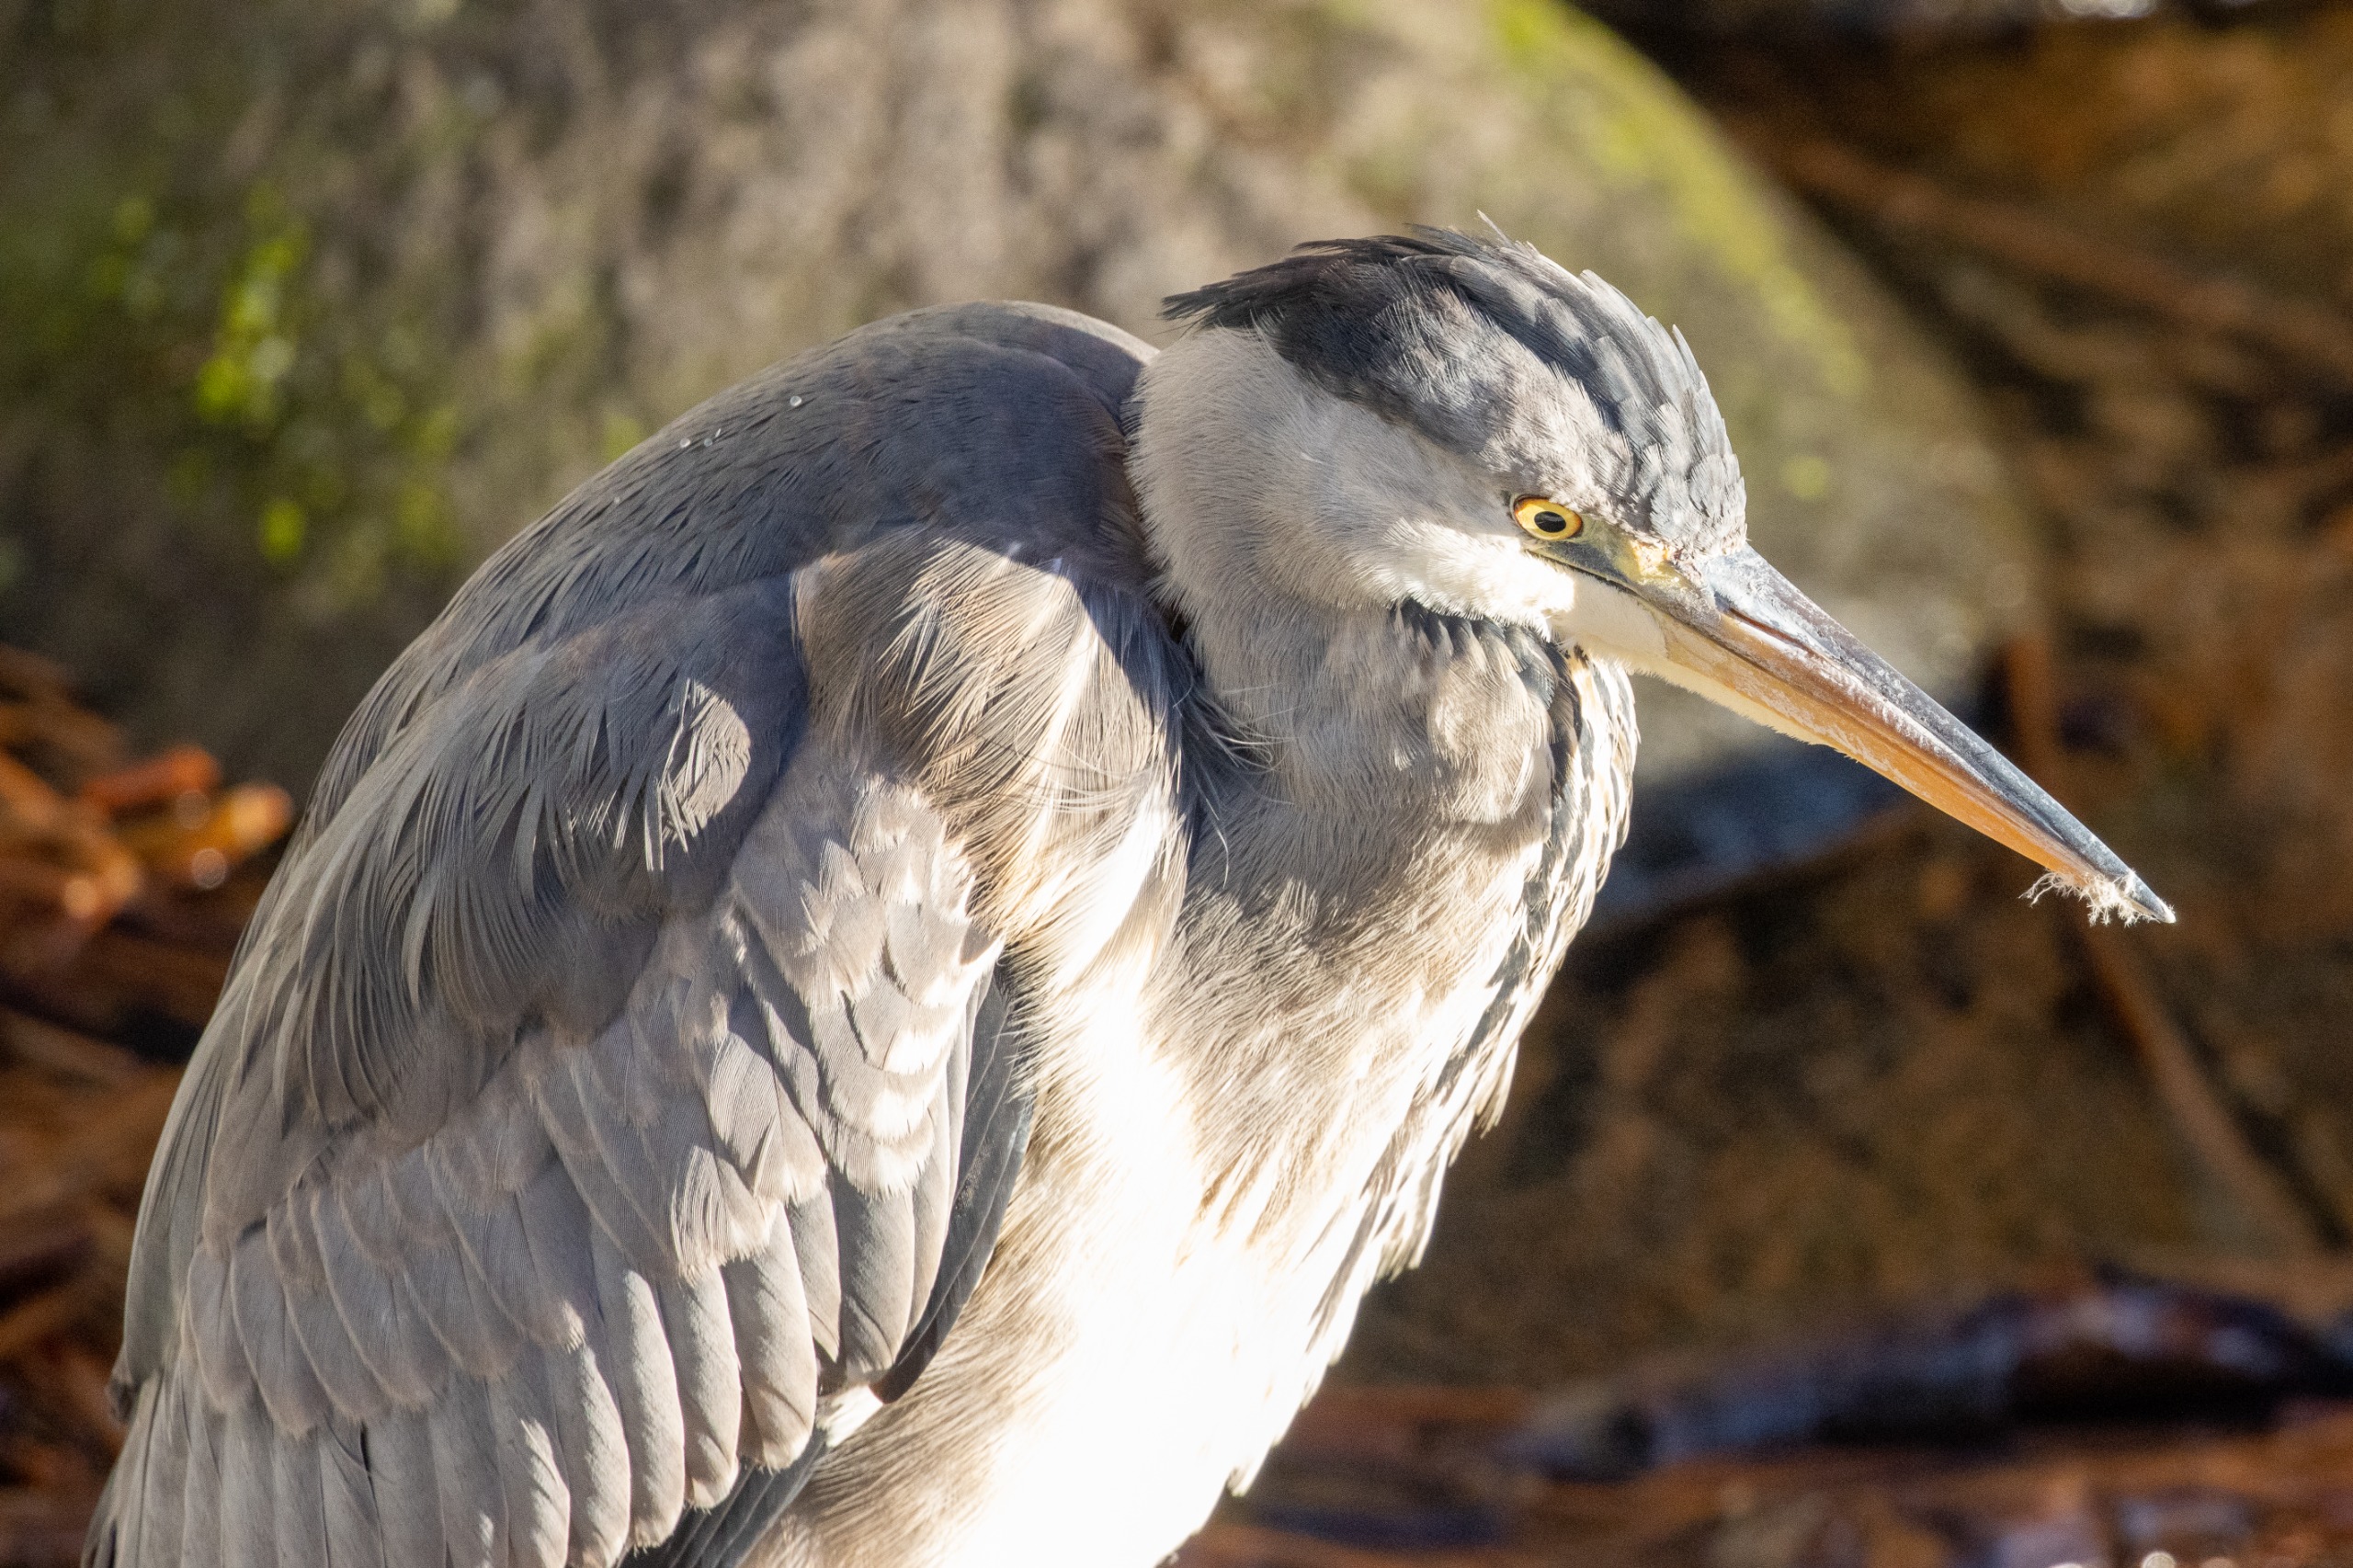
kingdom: Animalia
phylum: Chordata
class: Aves
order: Pelecaniformes
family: Ardeidae
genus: Ardea
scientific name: Ardea cinerea
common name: Fiskehejre
